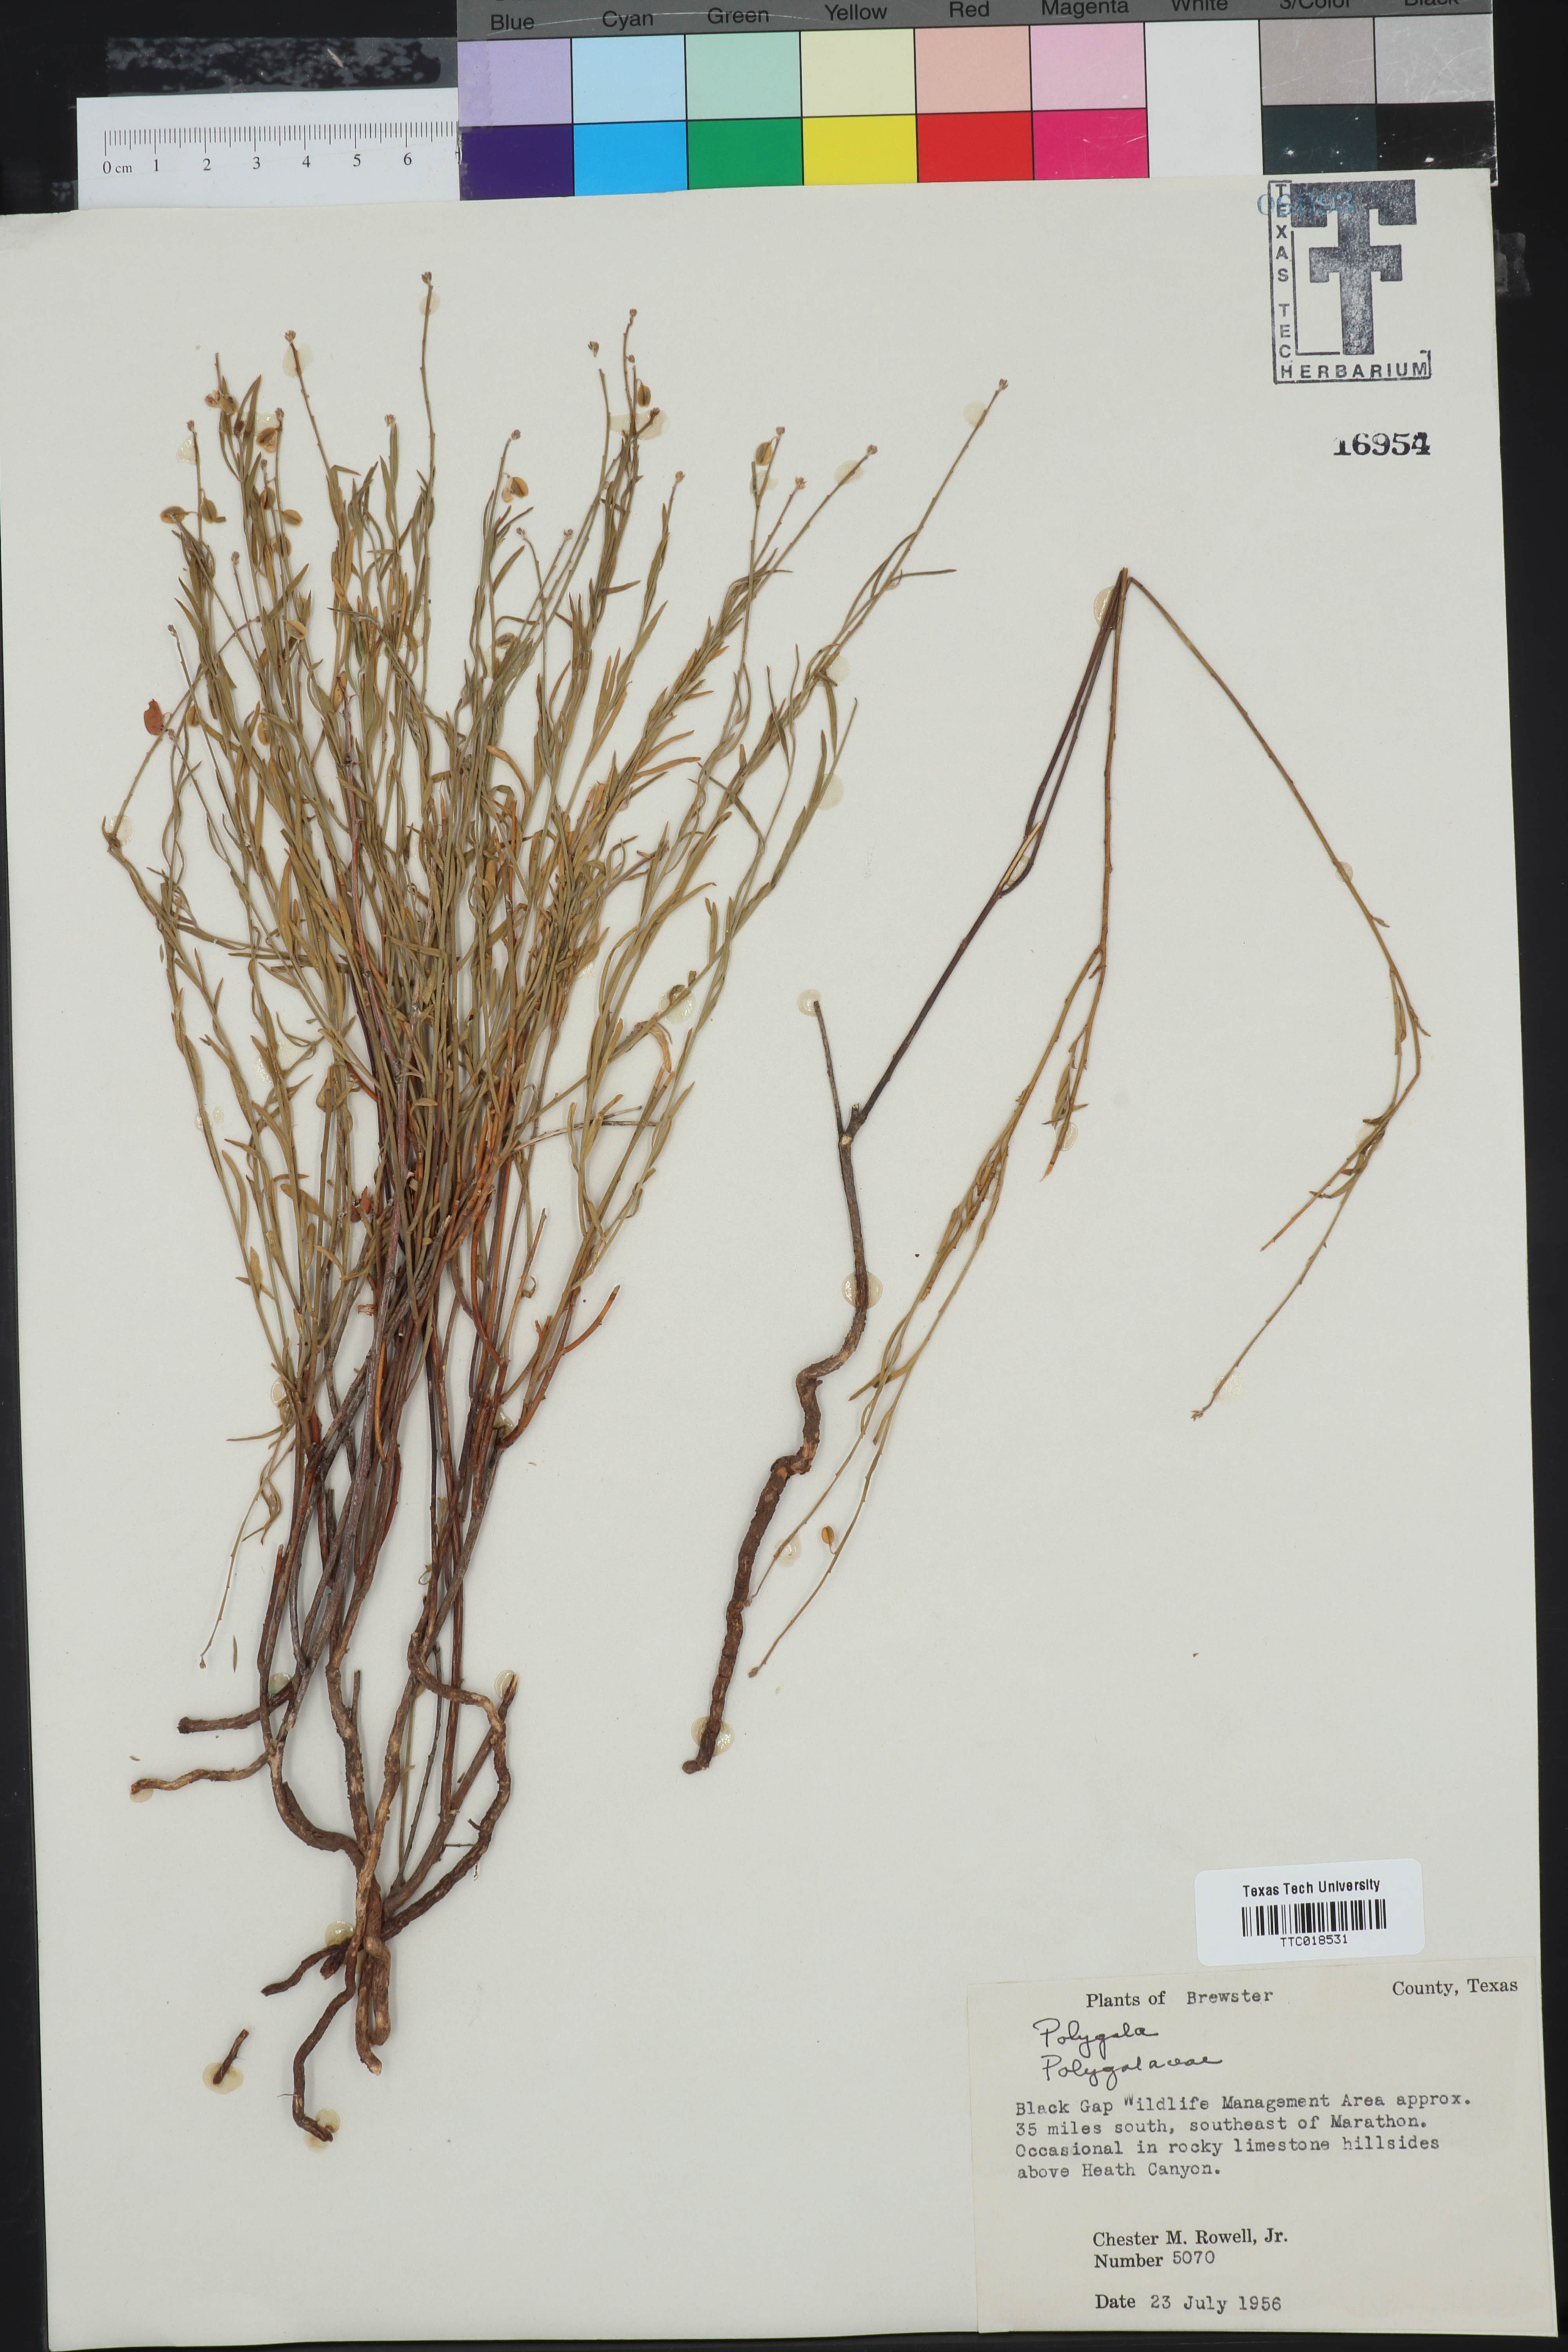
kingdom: Plantae
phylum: Tracheophyta
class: Magnoliopsida
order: Fabales
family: Polygalaceae
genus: Polygala
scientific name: Polygala
